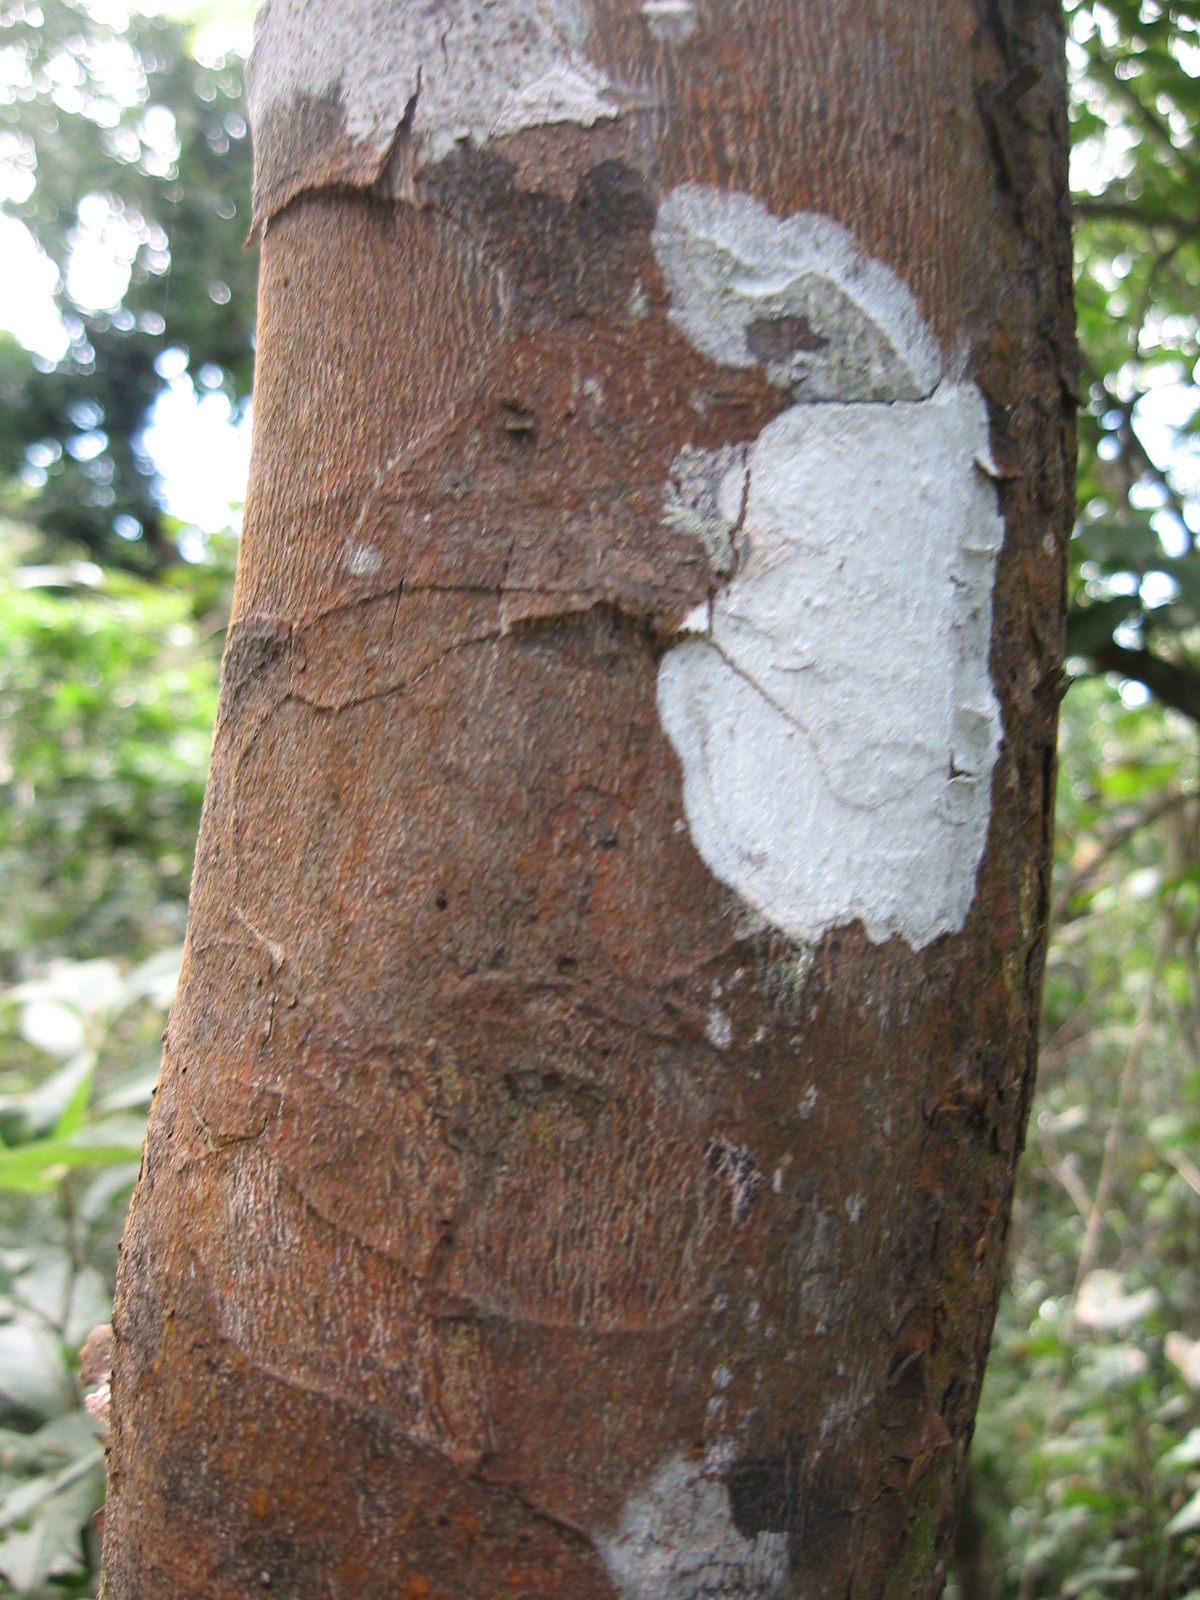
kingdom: Plantae
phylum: Tracheophyta
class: Magnoliopsida
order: Celastrales
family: Celastraceae
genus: Wimmeria
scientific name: Wimmeria cyclocarpa
